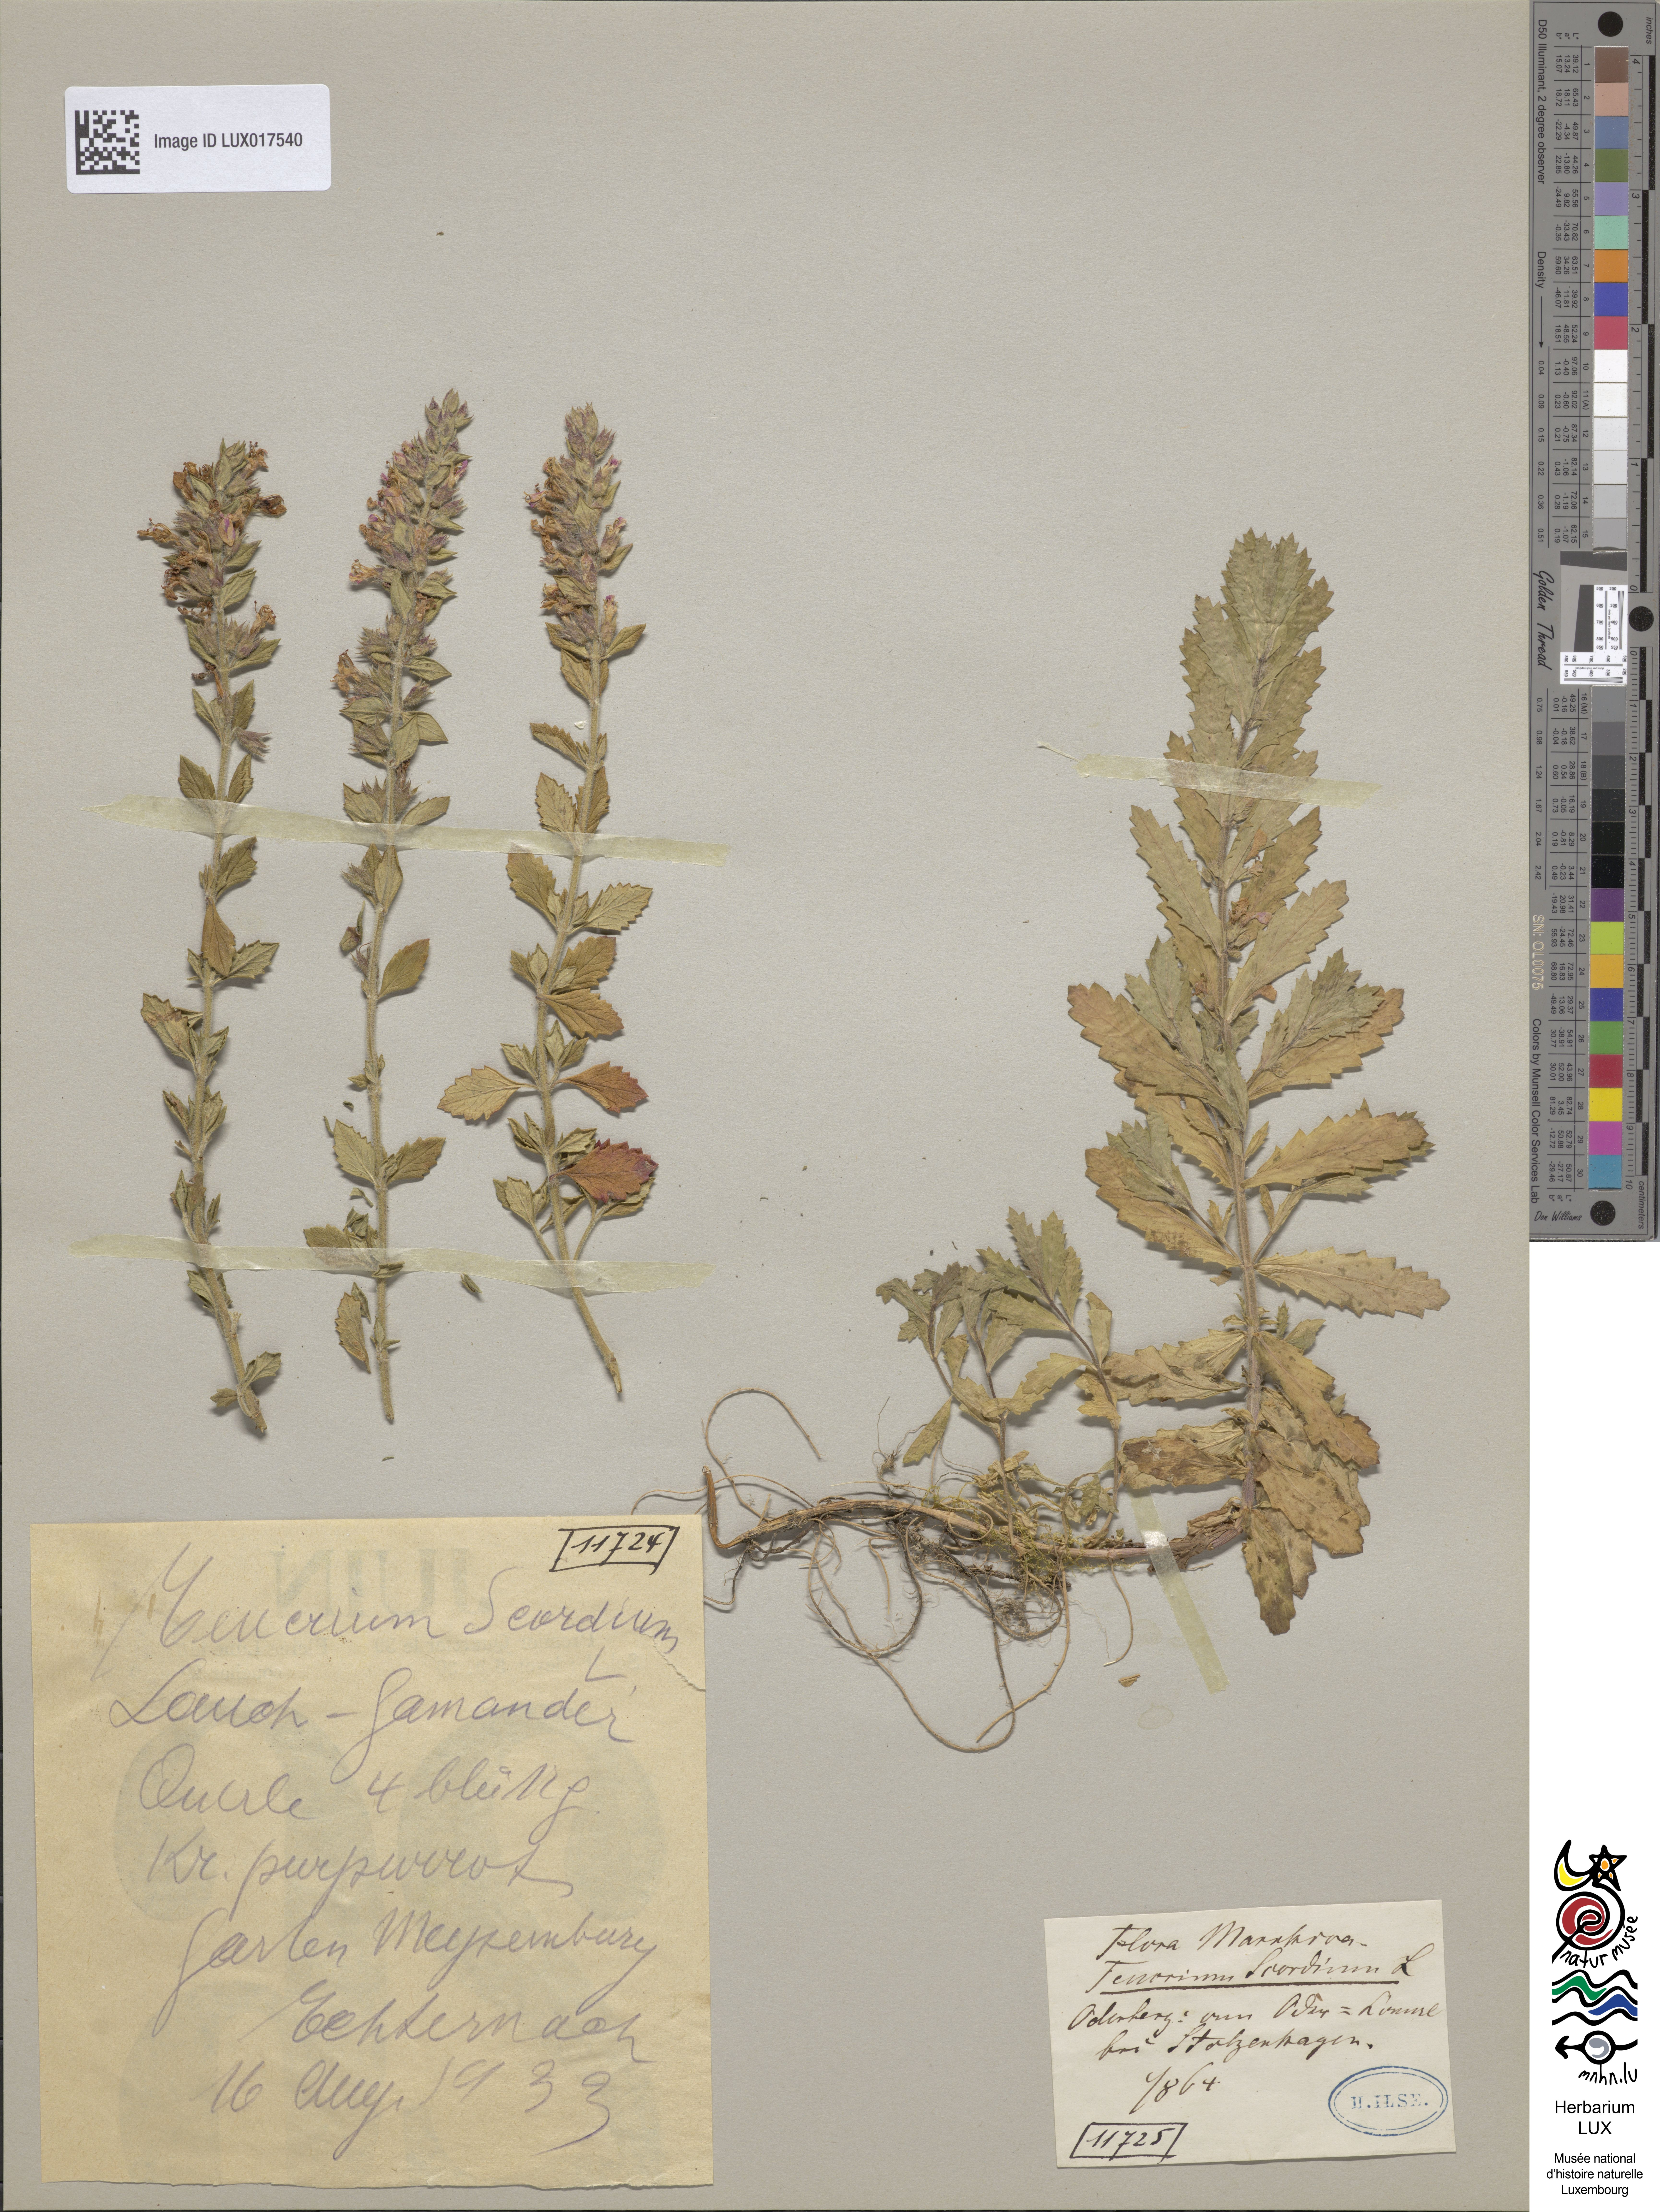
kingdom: Plantae
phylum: Tracheophyta
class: Magnoliopsida
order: Lamiales
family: Lamiaceae
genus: Teucrium
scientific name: Teucrium scordium
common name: Water germander
